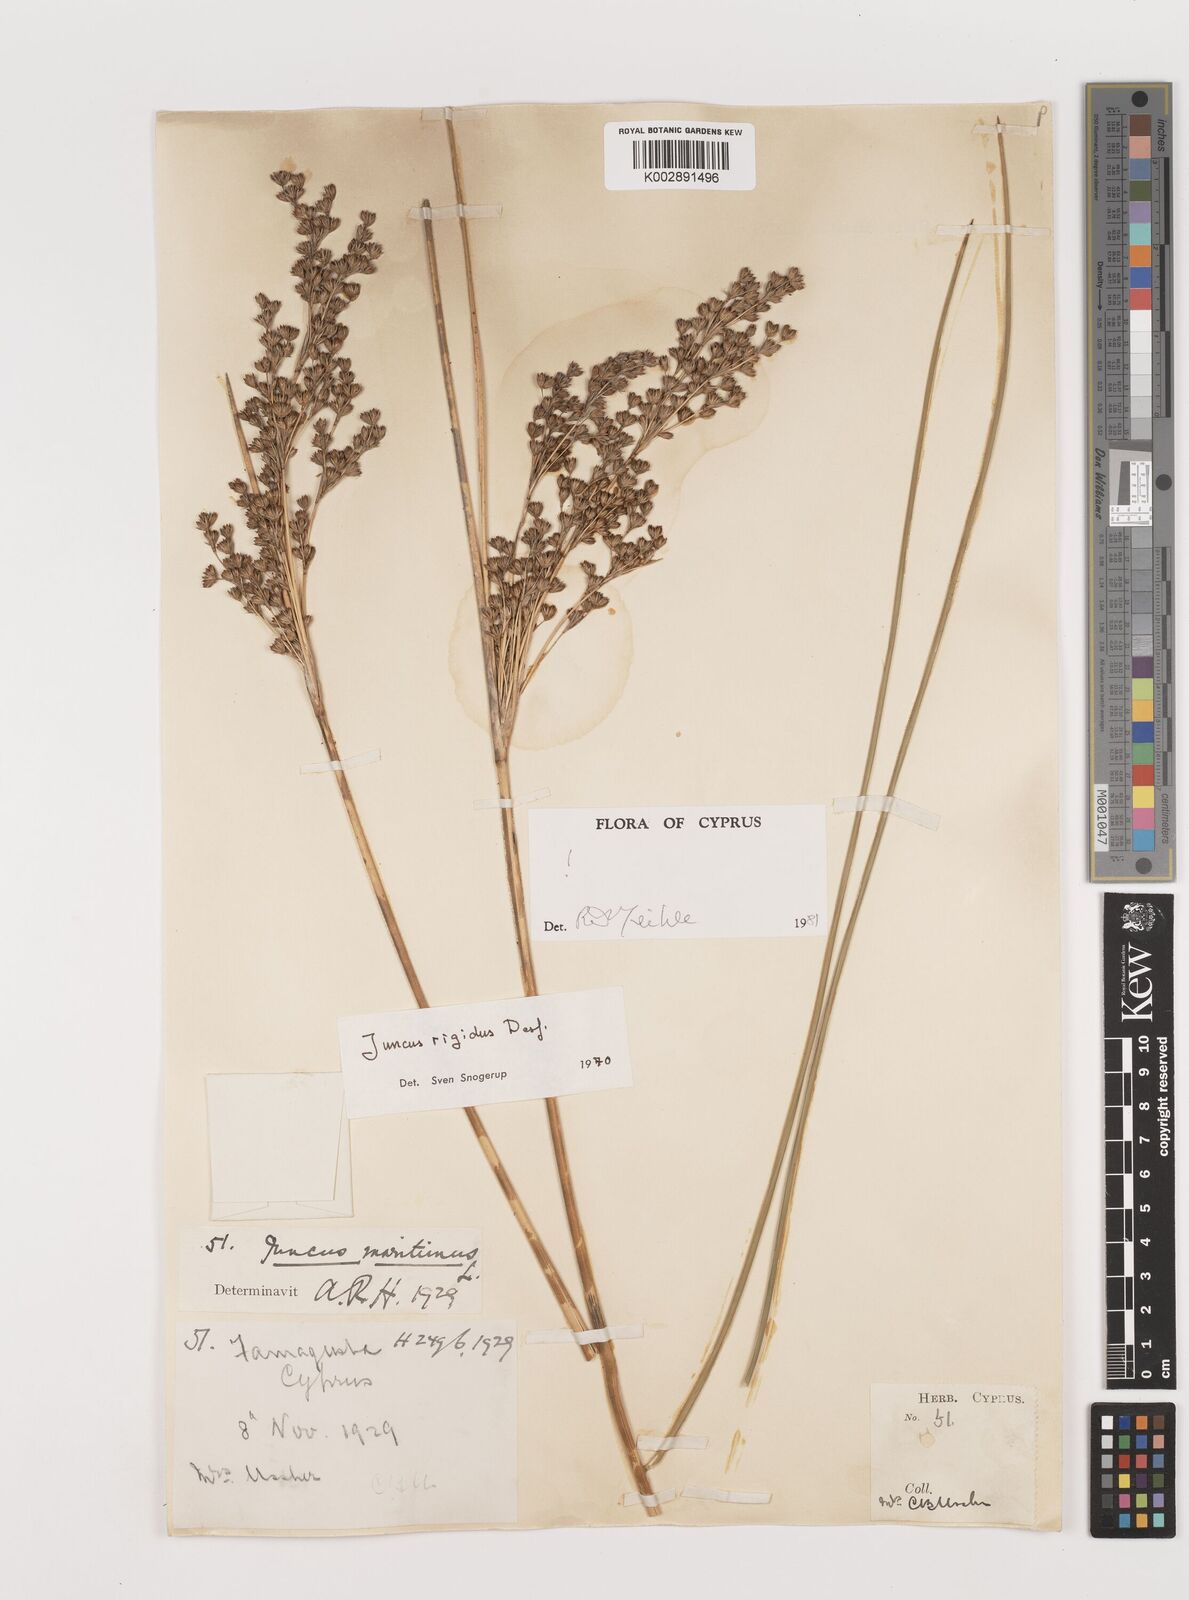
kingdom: Plantae
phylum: Tracheophyta
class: Liliopsida
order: Poales
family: Juncaceae
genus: Juncus
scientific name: Juncus rigidus
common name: Hard sea rush
